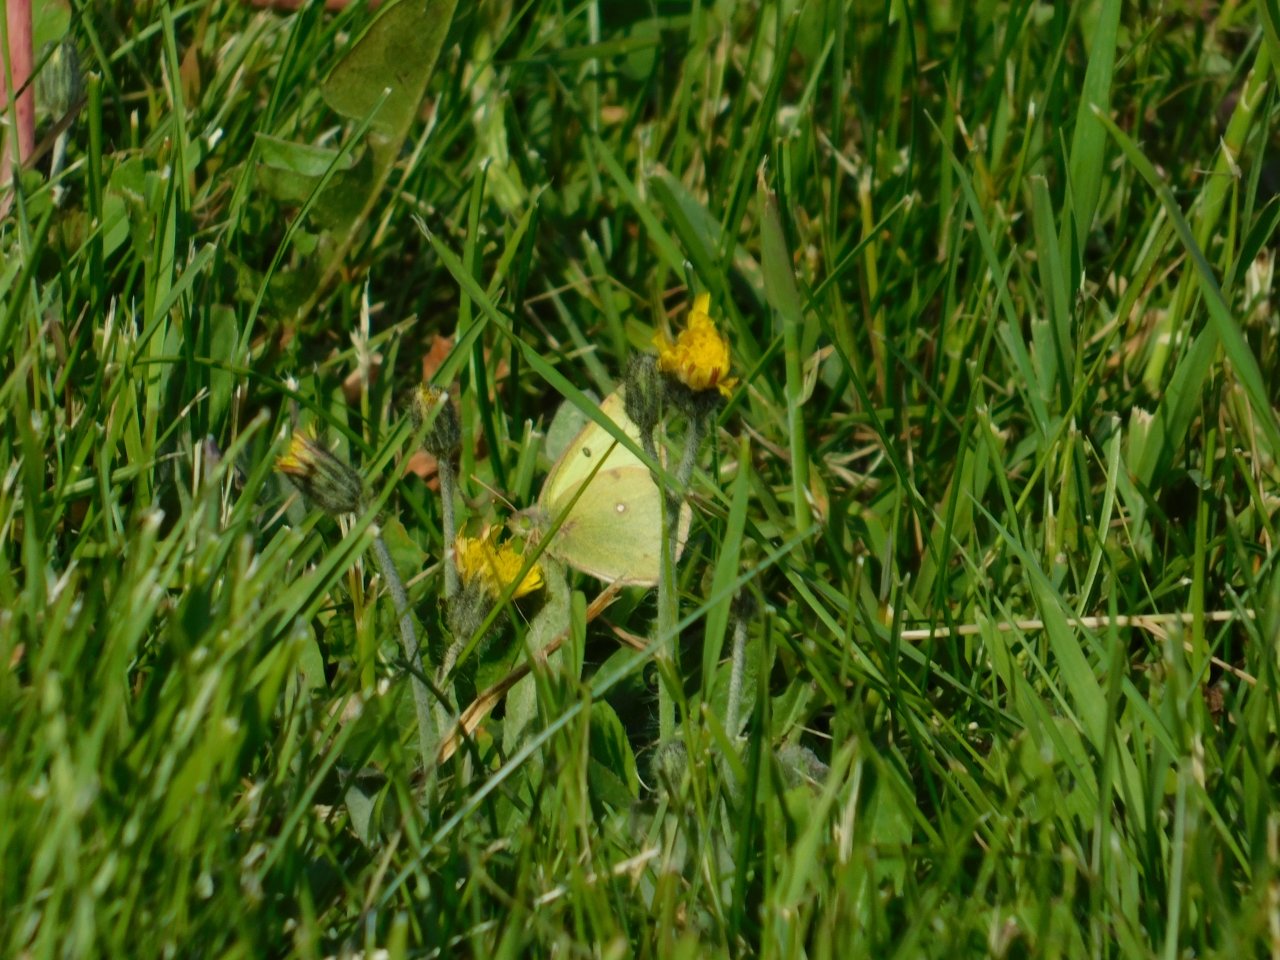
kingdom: Animalia
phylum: Arthropoda
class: Insecta
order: Lepidoptera
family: Pieridae
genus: Colias
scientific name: Colias philodice
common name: Clouded Sulphur
